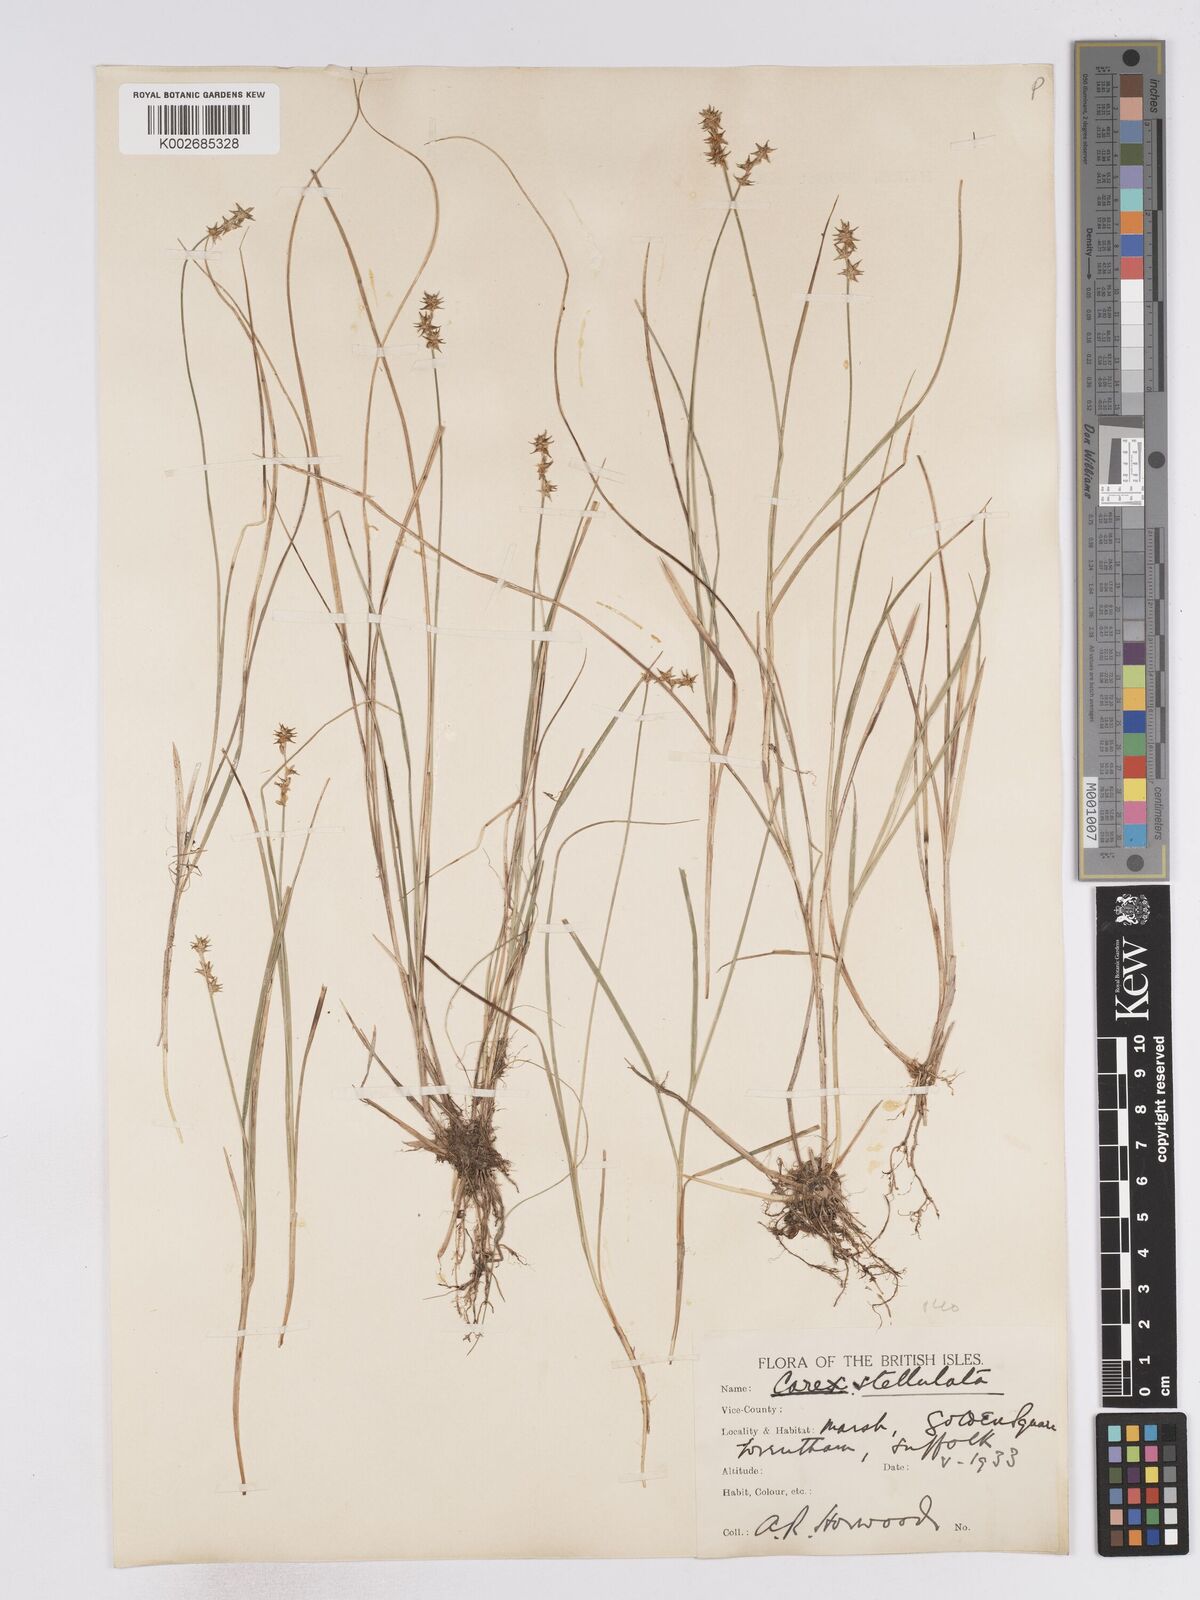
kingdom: Plantae
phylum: Tracheophyta
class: Liliopsida
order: Poales
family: Cyperaceae
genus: Carex
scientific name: Carex echinata
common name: Star sedge
